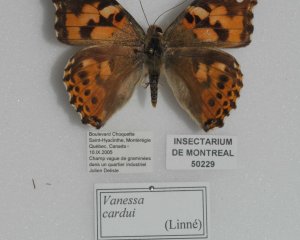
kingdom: Animalia
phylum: Arthropoda
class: Insecta
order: Lepidoptera
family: Nymphalidae
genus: Vanessa
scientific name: Vanessa cardui
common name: Painted Lady
